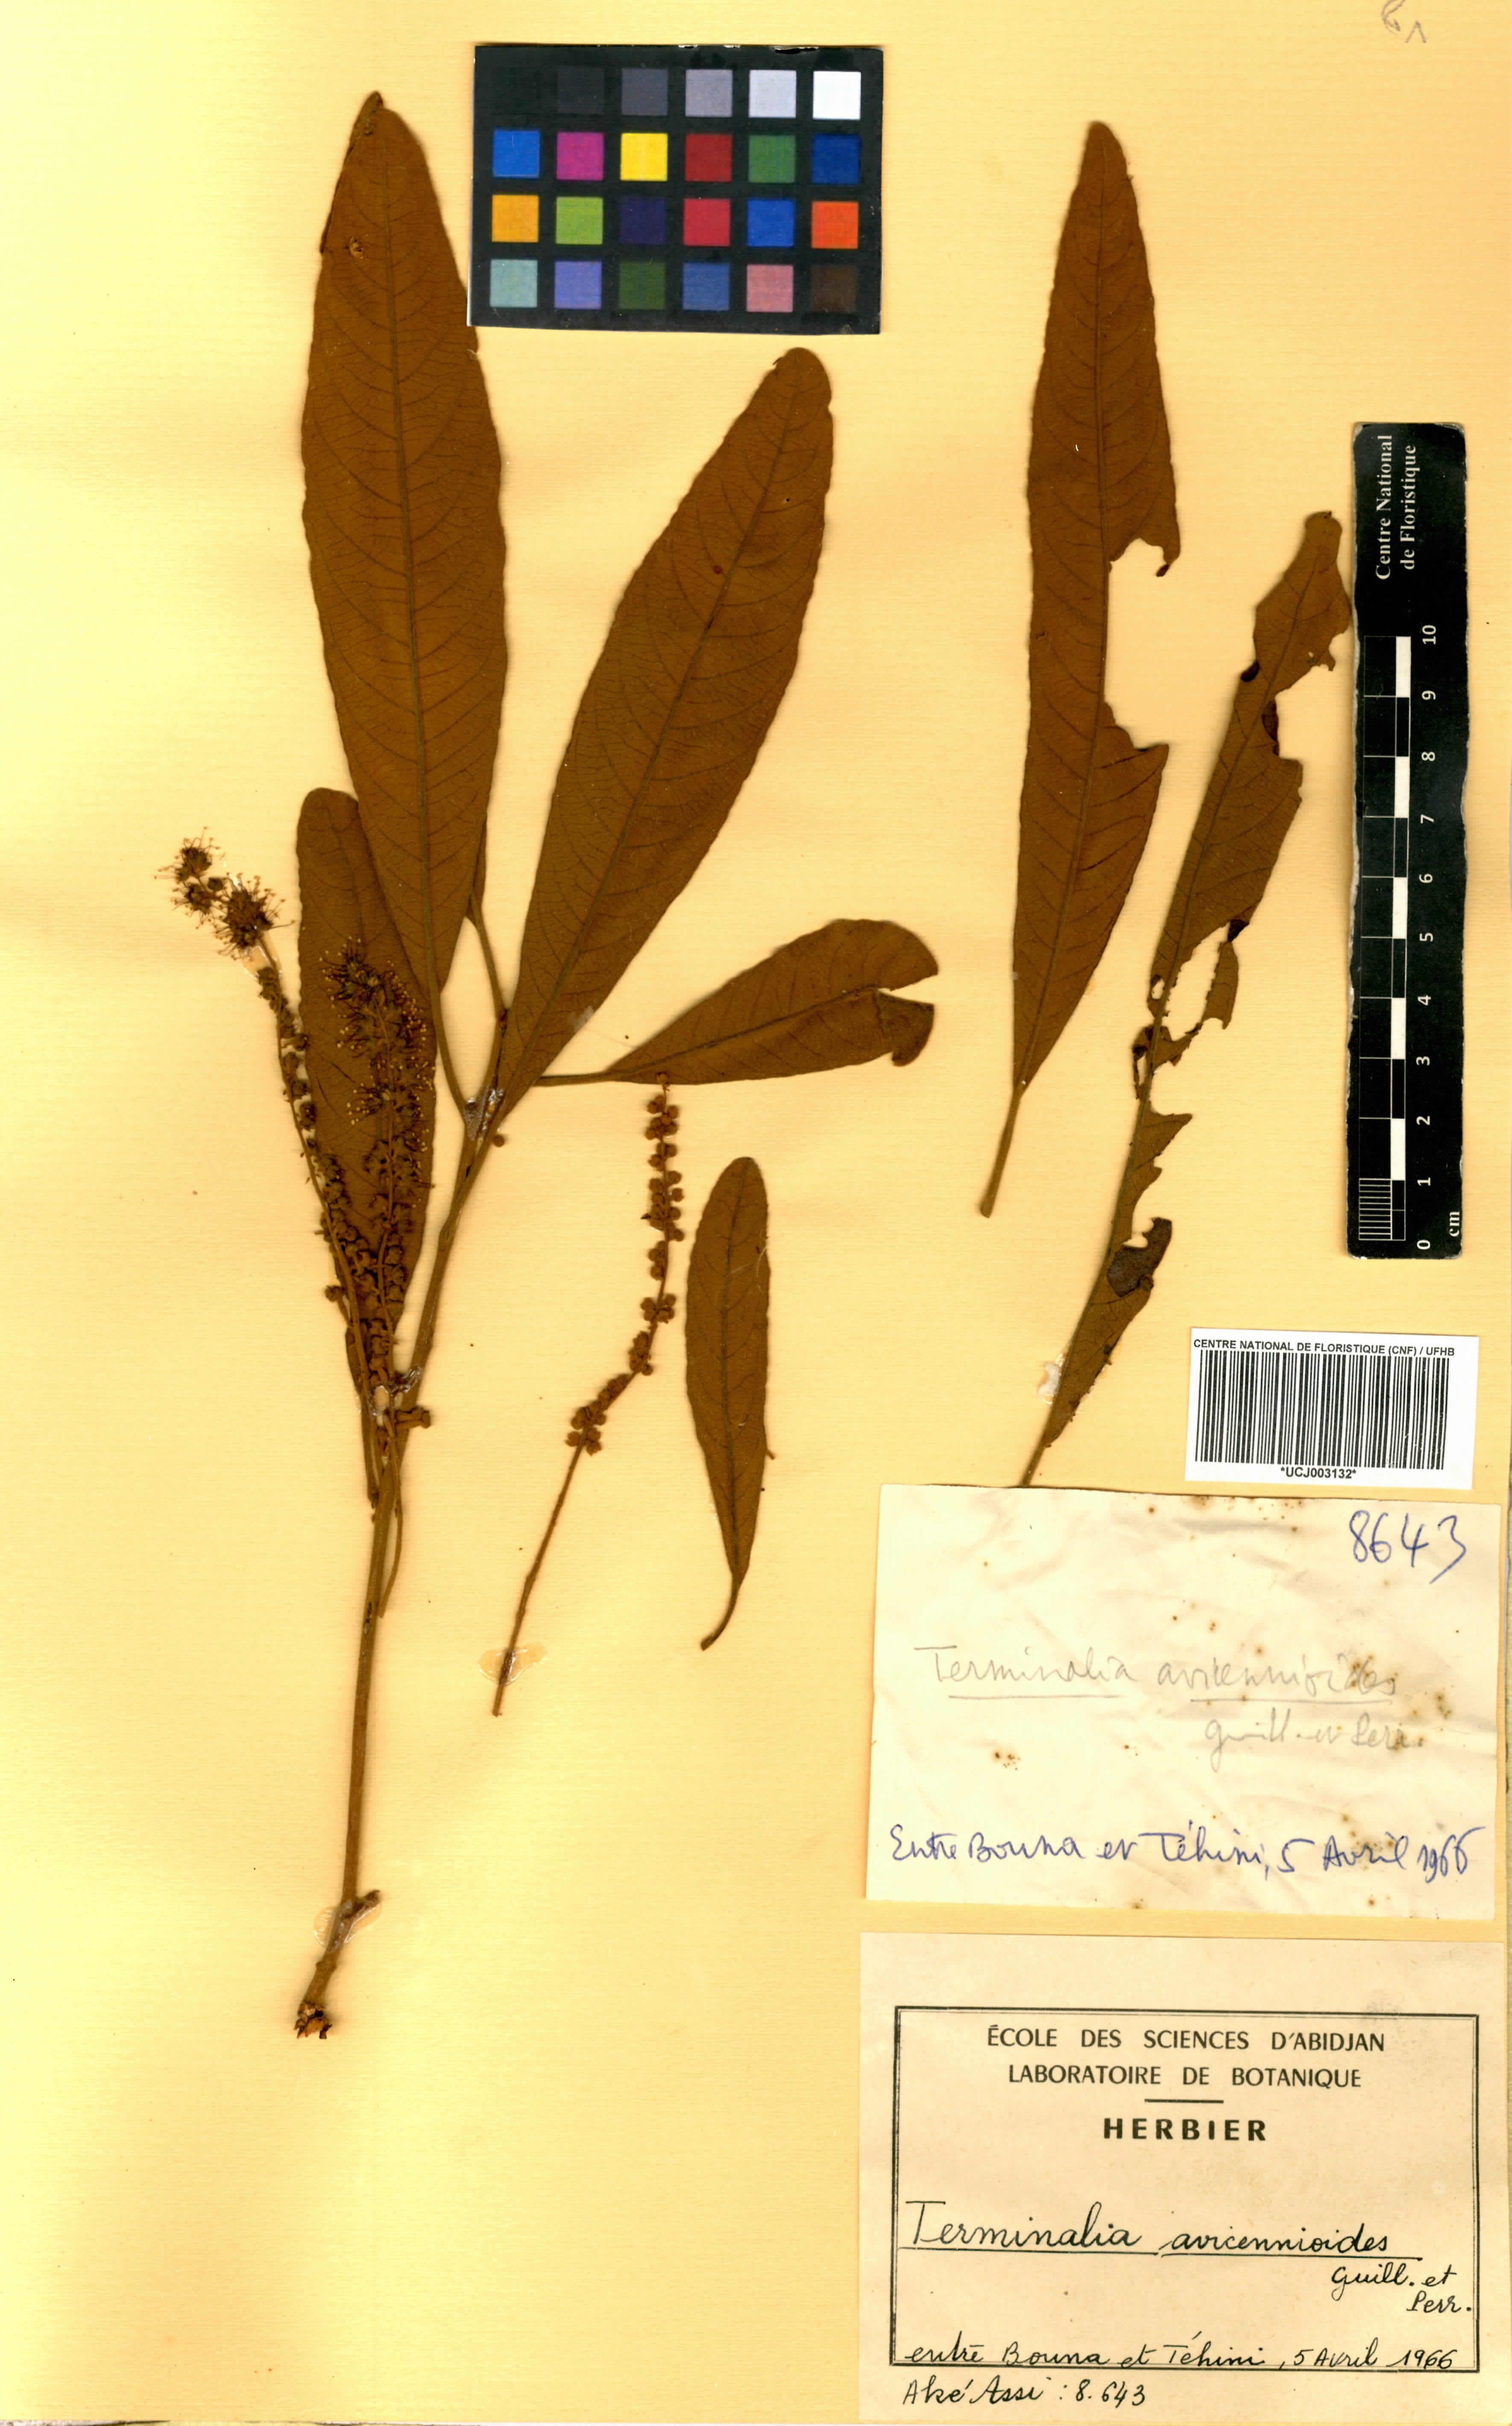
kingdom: Plantae
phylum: Tracheophyta
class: Magnoliopsida
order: Myrtales
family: Combretaceae
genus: Terminalia
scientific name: Terminalia avicennioides
